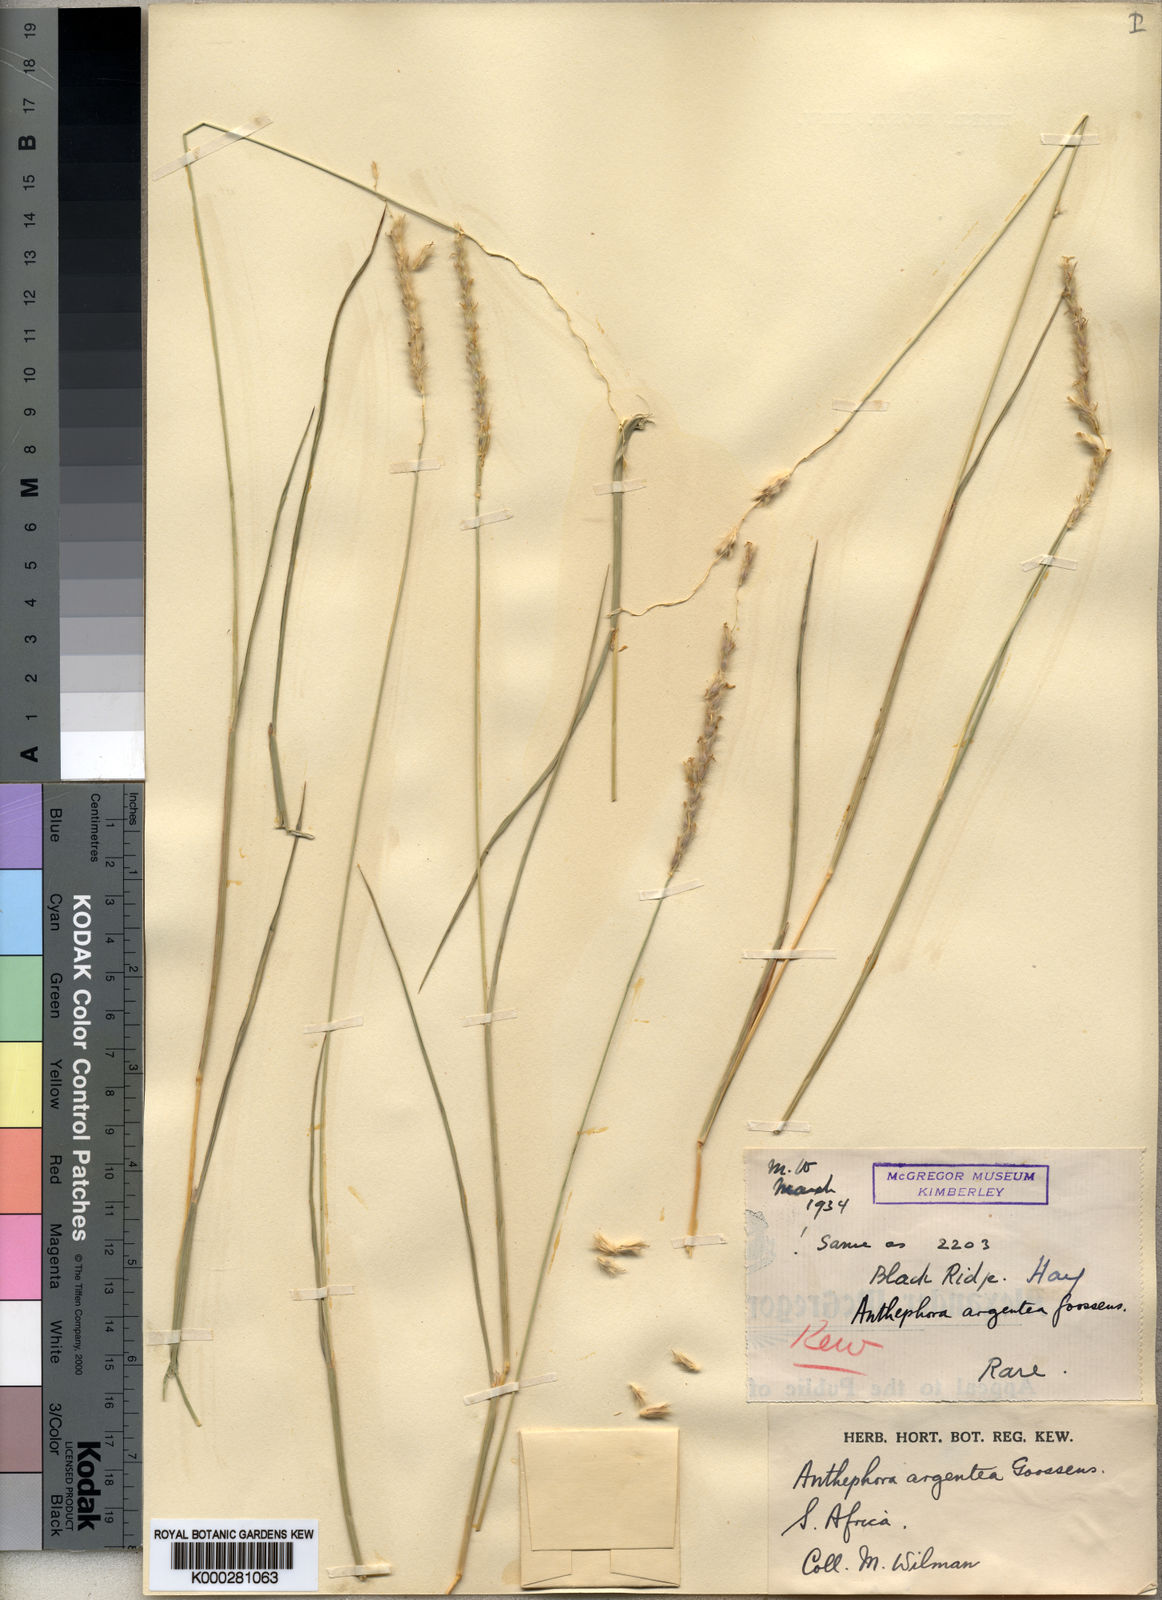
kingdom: Plantae
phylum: Tracheophyta
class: Liliopsida
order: Poales
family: Poaceae
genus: Anthephora
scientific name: Anthephora
